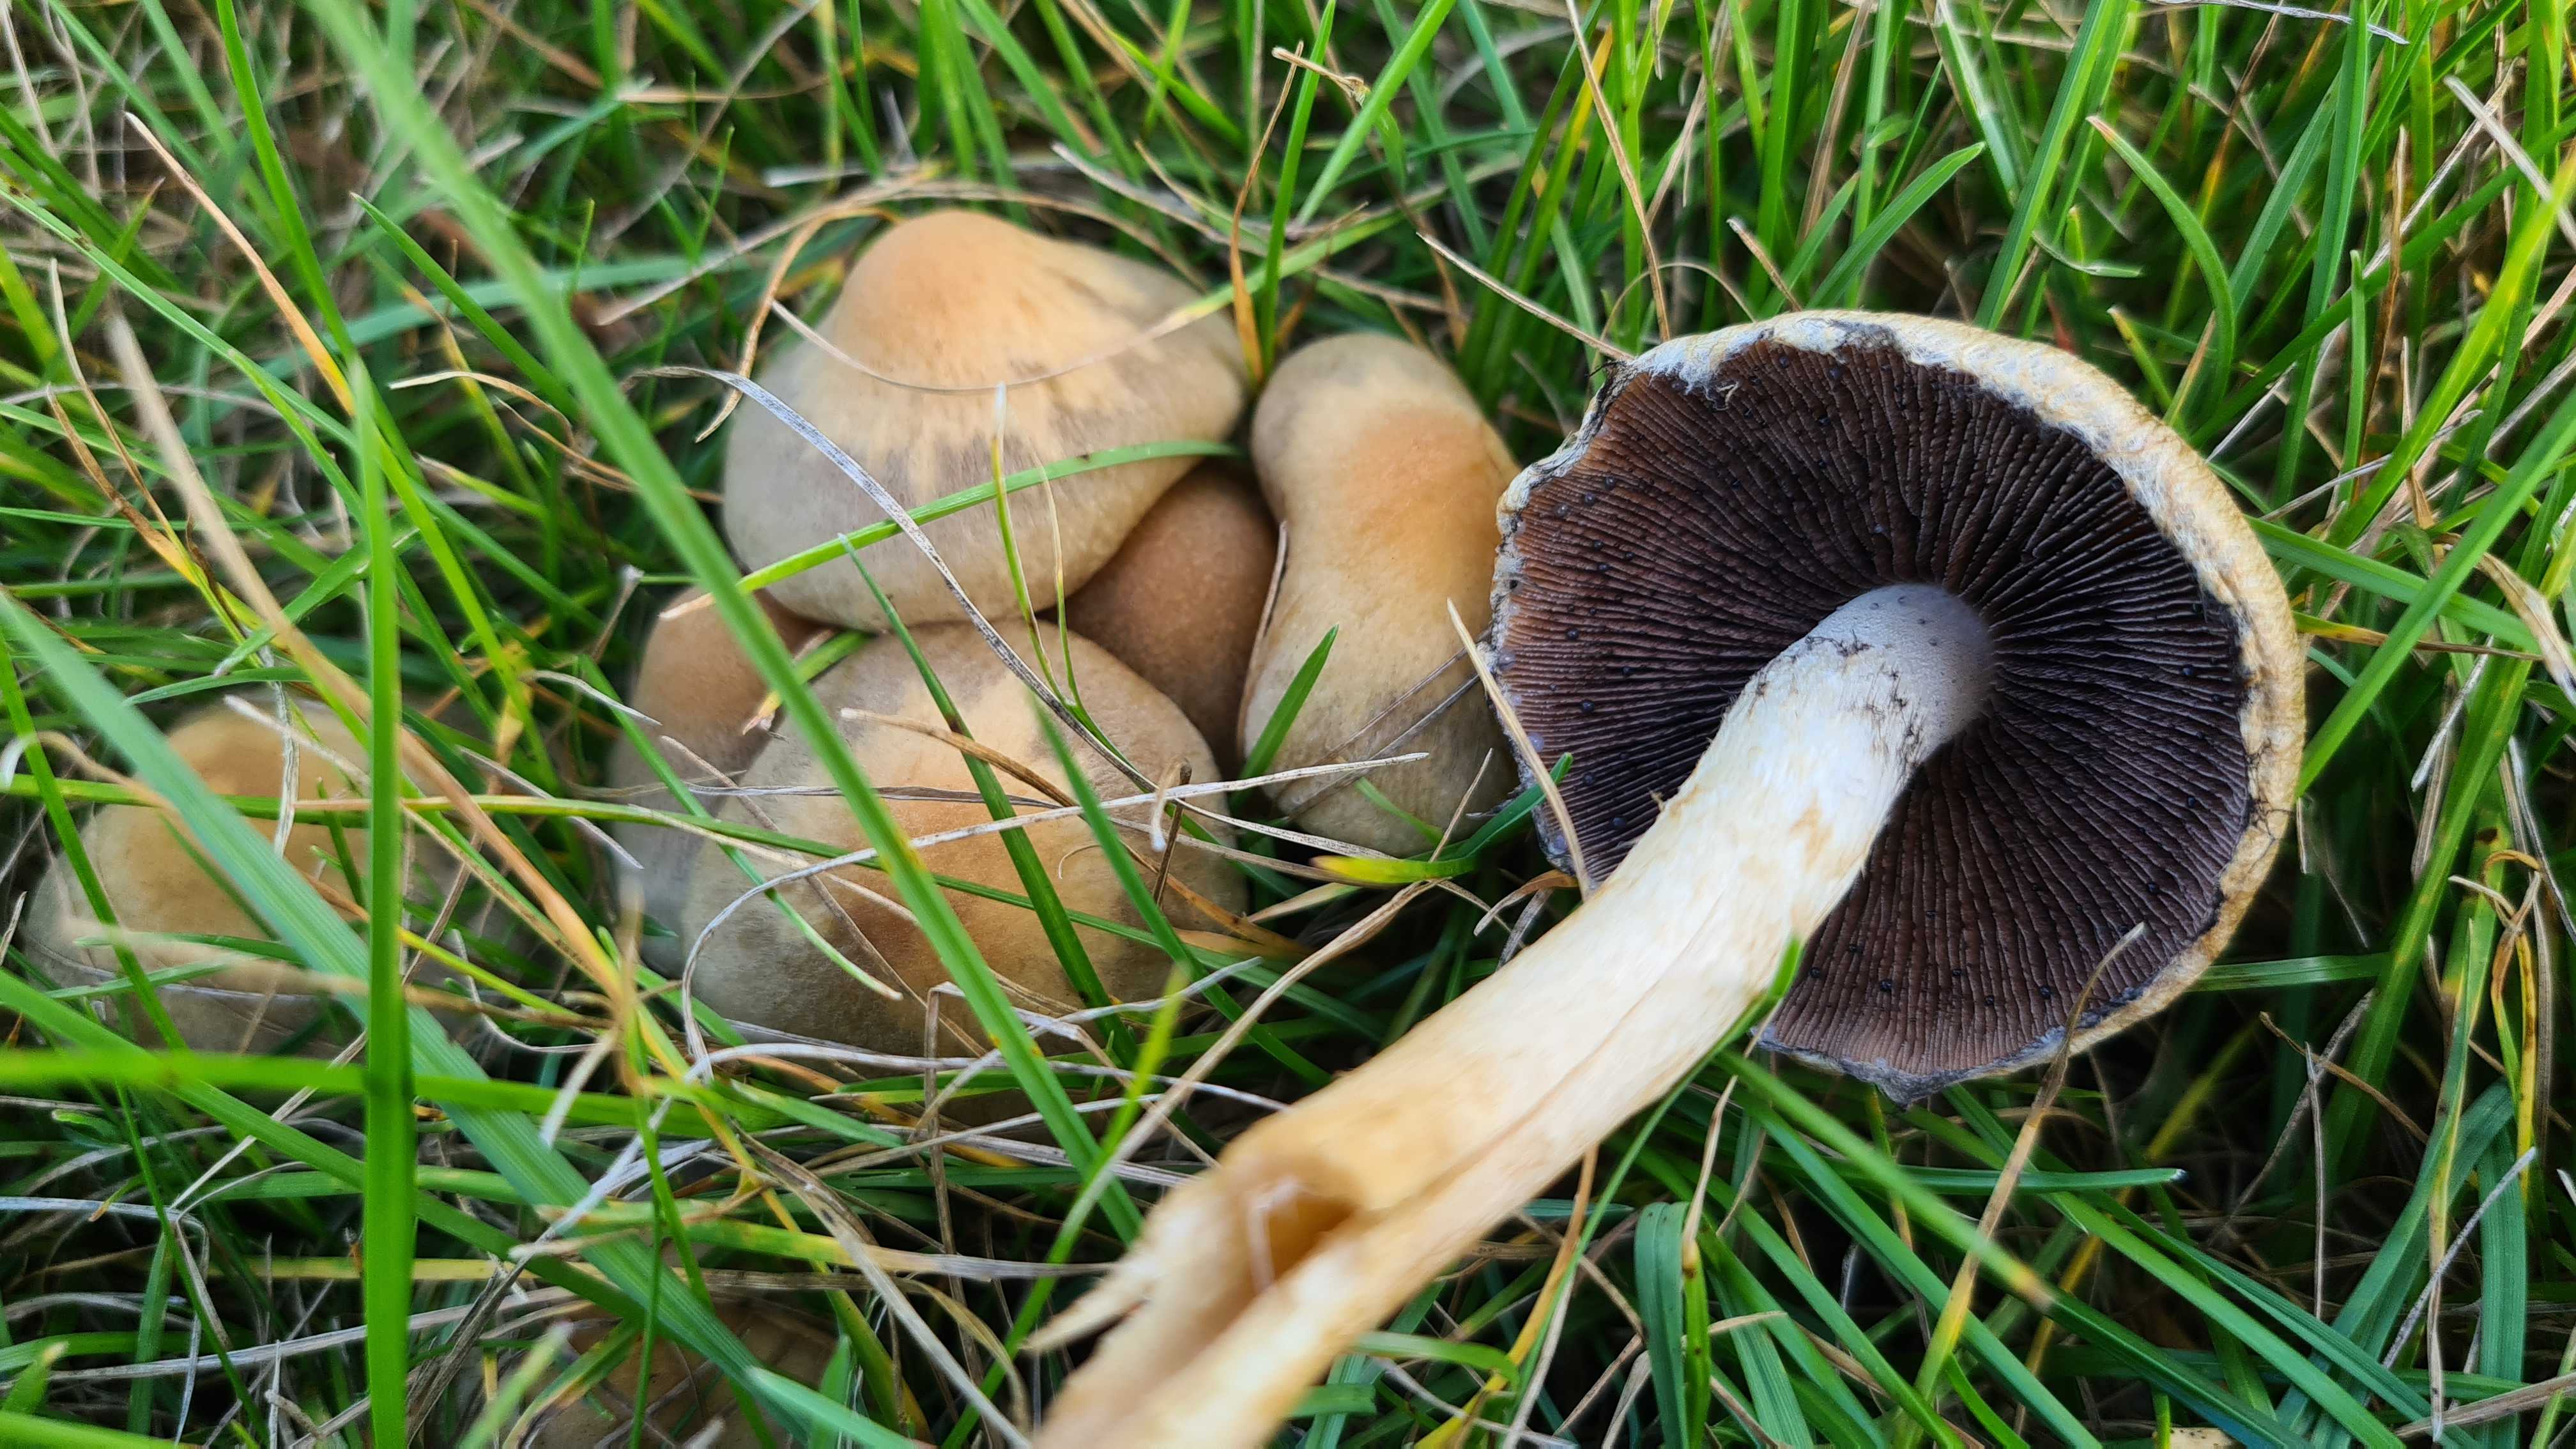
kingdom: Fungi
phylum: Basidiomycota
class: Agaricomycetes
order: Agaricales
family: Psathyrellaceae
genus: Lacrymaria
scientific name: Lacrymaria lacrymabunda
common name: grædende mørkhat
